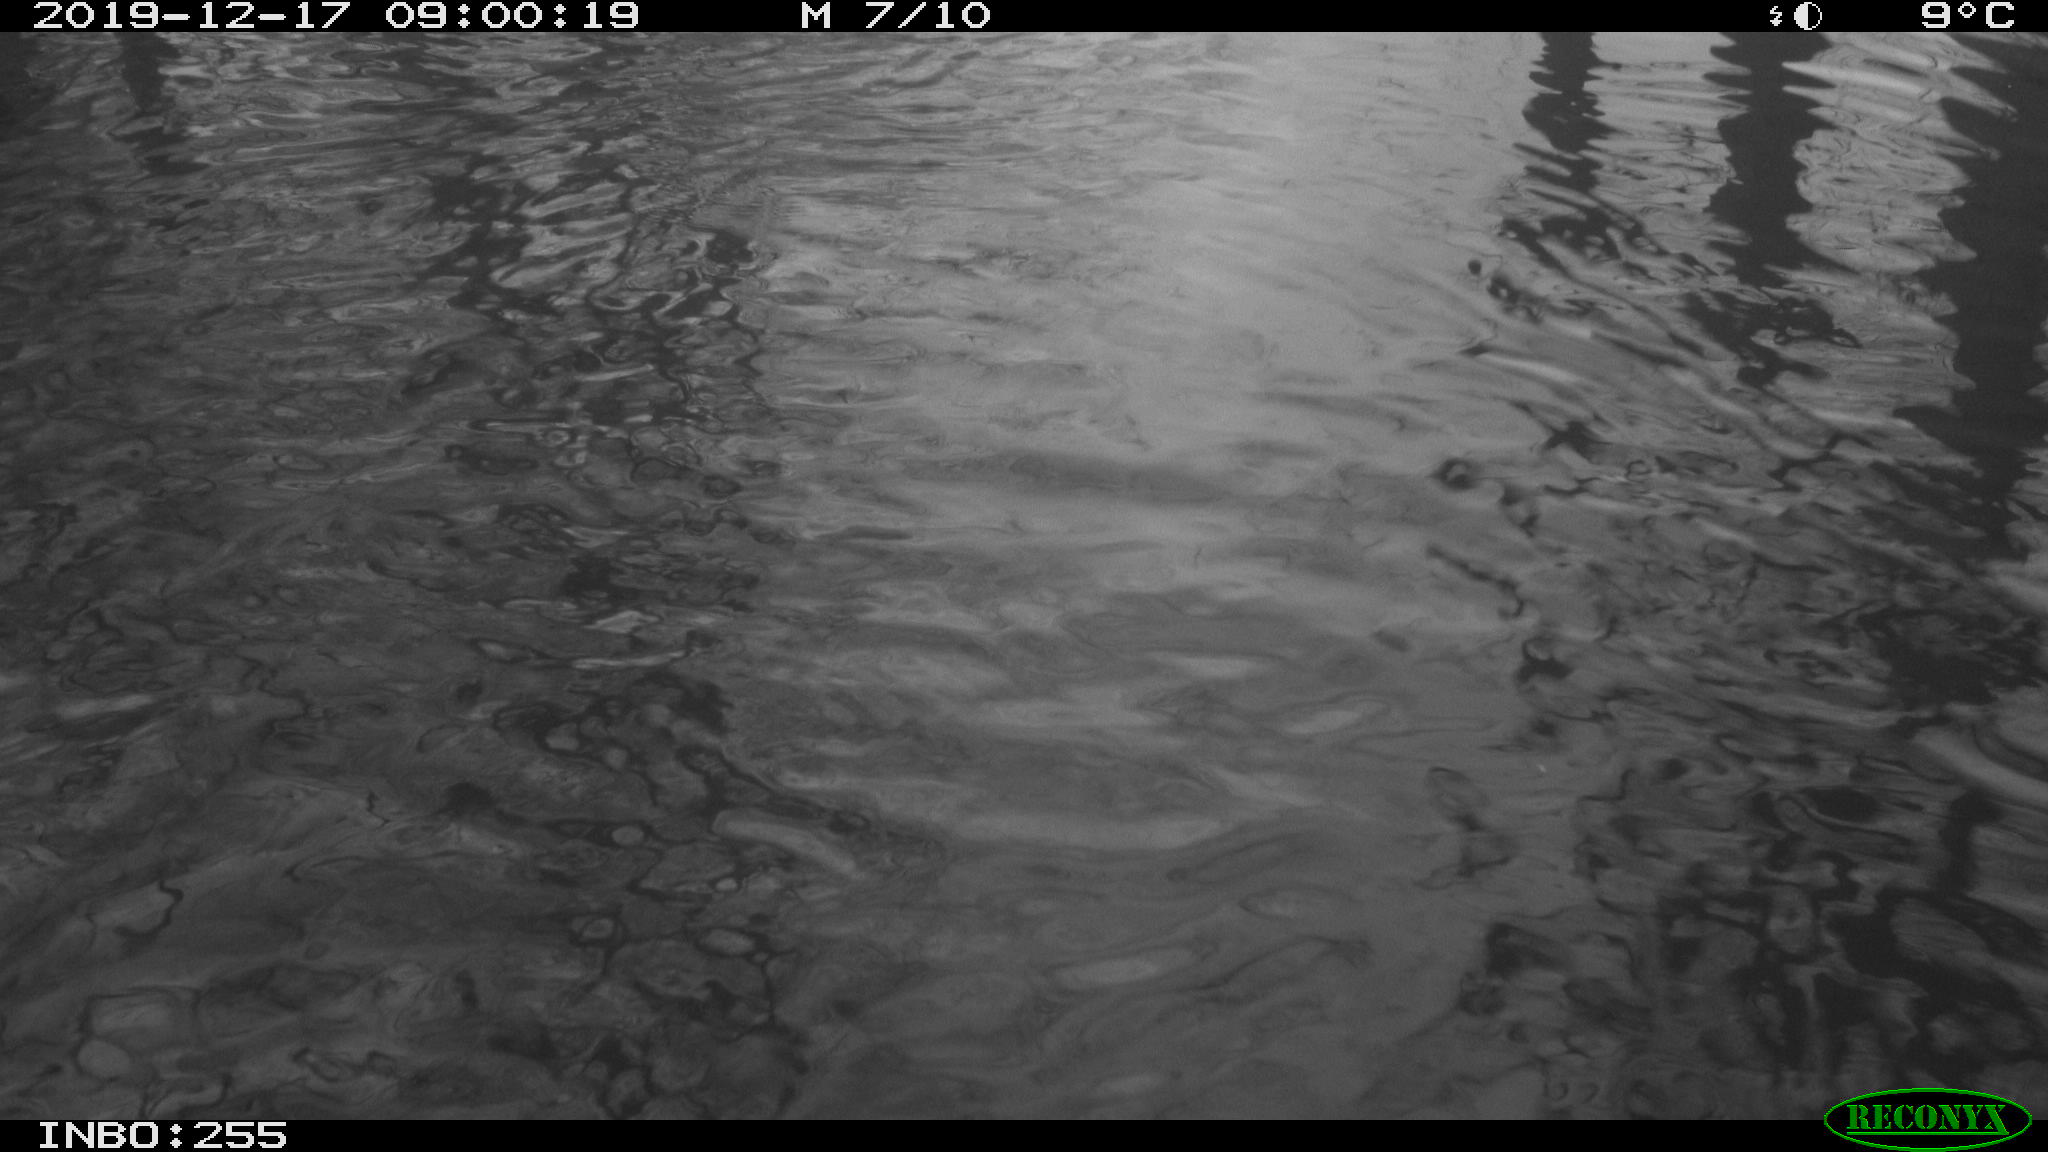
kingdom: Animalia
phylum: Chordata
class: Aves
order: Anseriformes
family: Anatidae
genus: Anas
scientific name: Anas platyrhynchos
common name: Mallard
